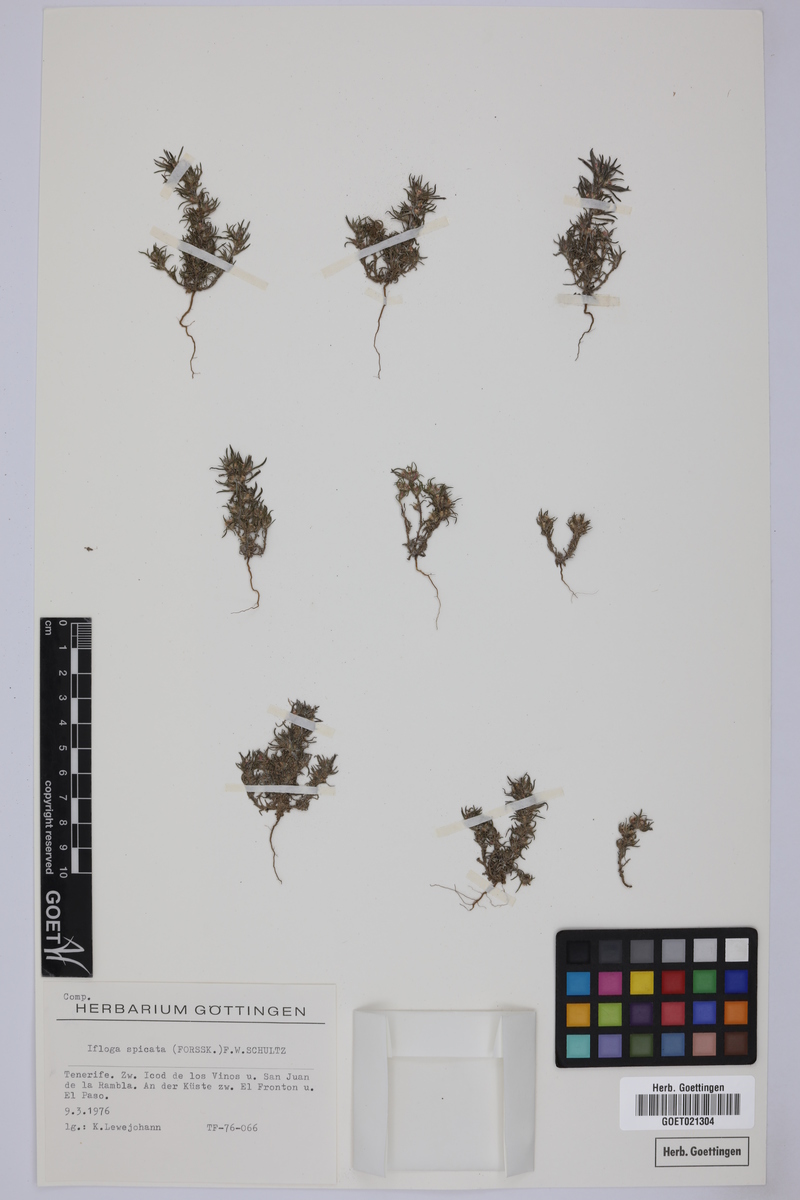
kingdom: Plantae
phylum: Tracheophyta
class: Magnoliopsida
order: Asterales
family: Asteraceae
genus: Ifloga
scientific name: Ifloga spicata
